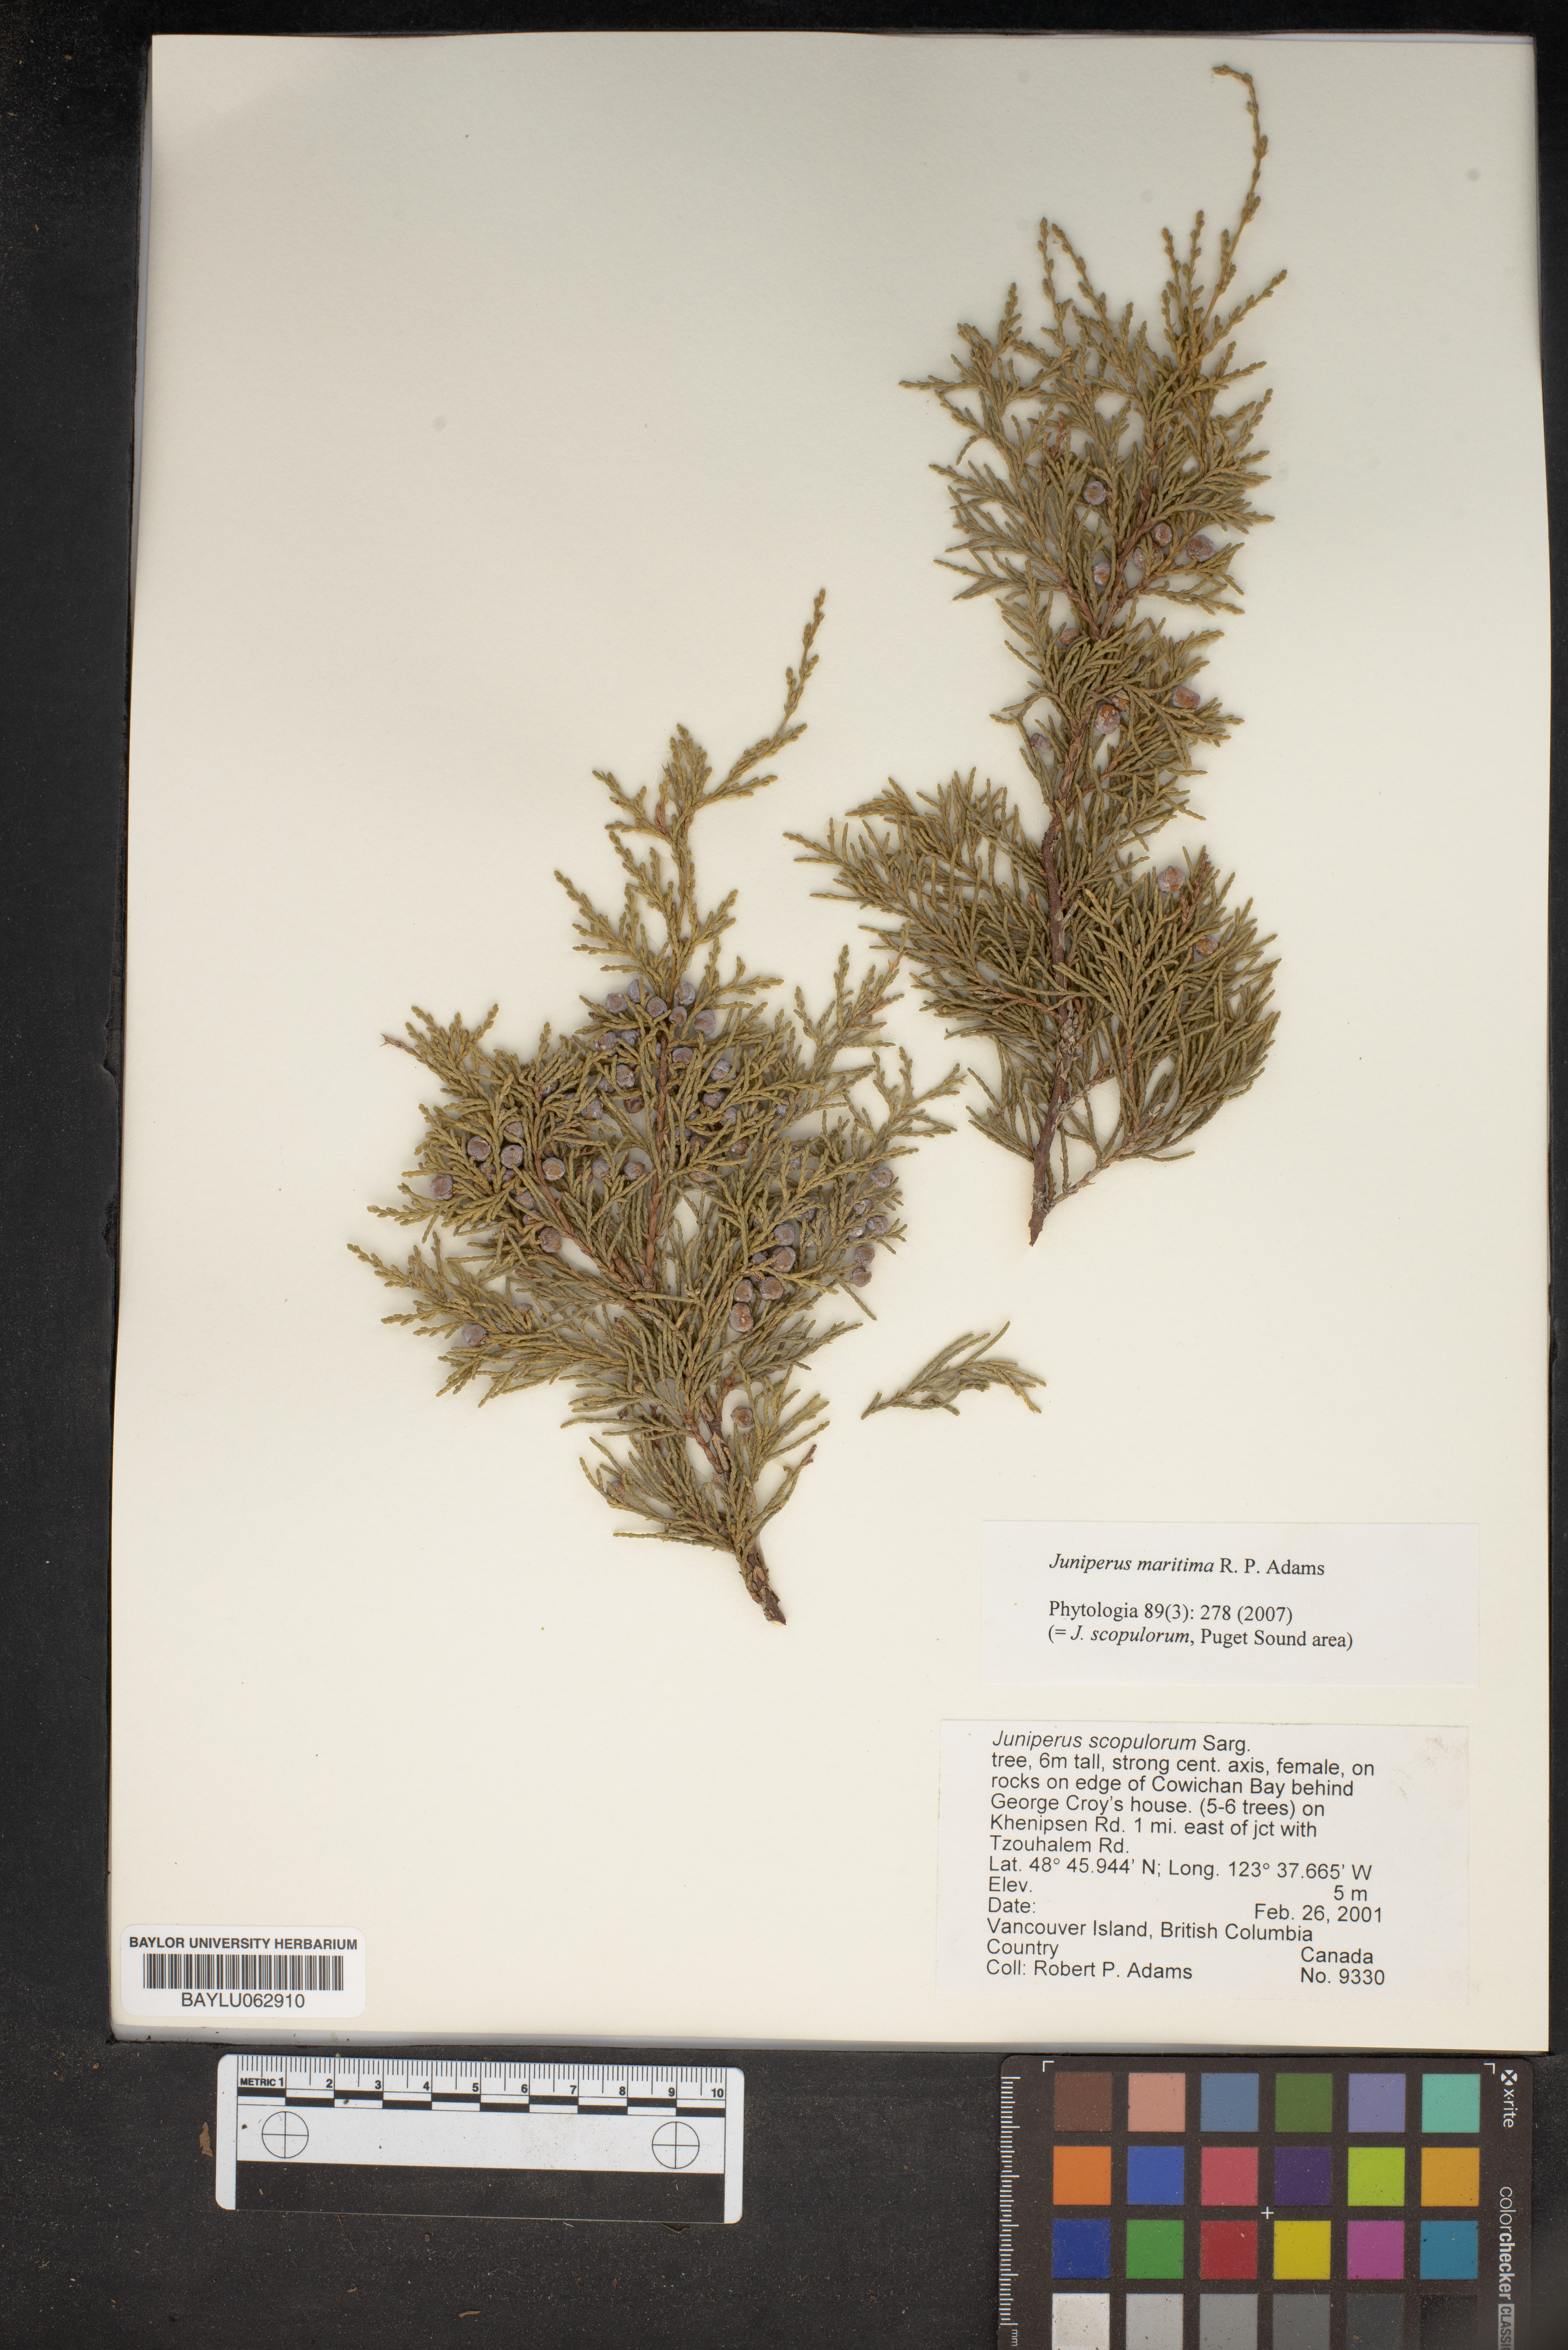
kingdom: Plantae
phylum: Tracheophyta
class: Pinopsida
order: Pinales
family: Cupressaceae
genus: Juniperus
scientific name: Juniperus scopulorum
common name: Rocky mountain juniper
